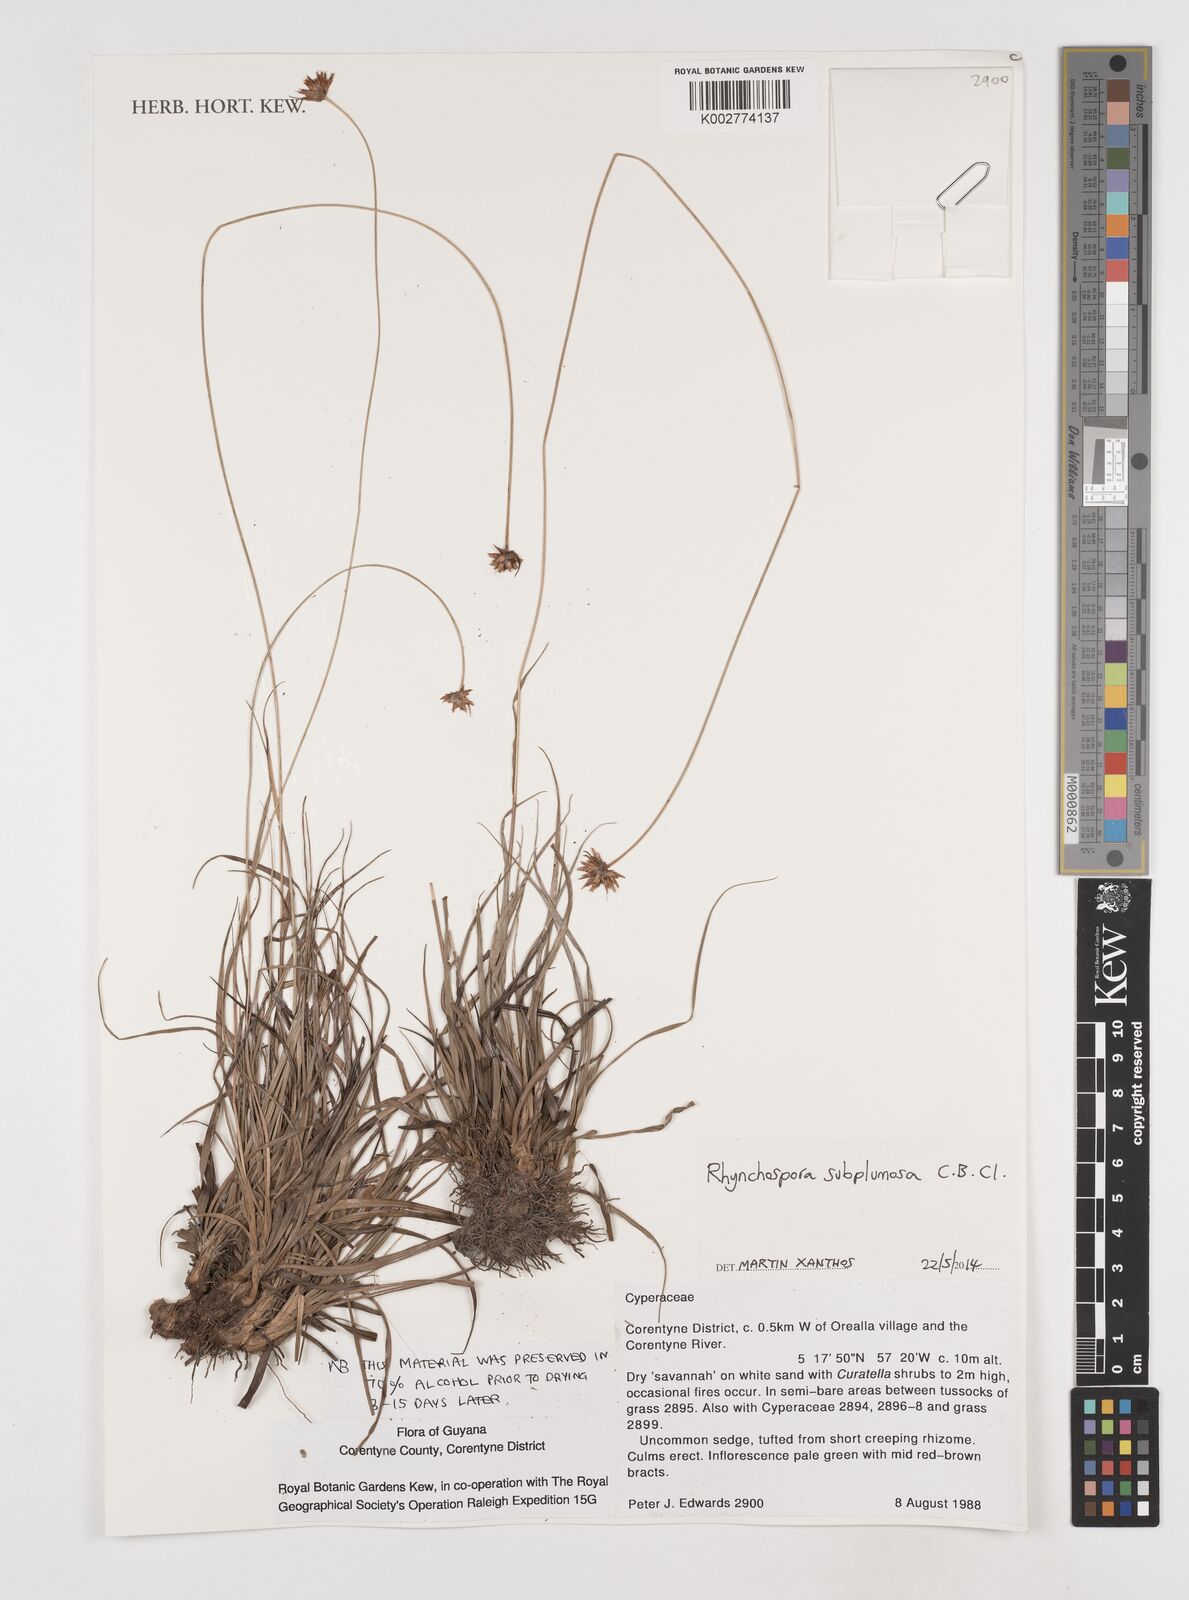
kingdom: Plantae
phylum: Tracheophyta
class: Liliopsida
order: Poales
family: Cyperaceae
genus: Rhynchospora
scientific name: Rhynchospora subplumosa
